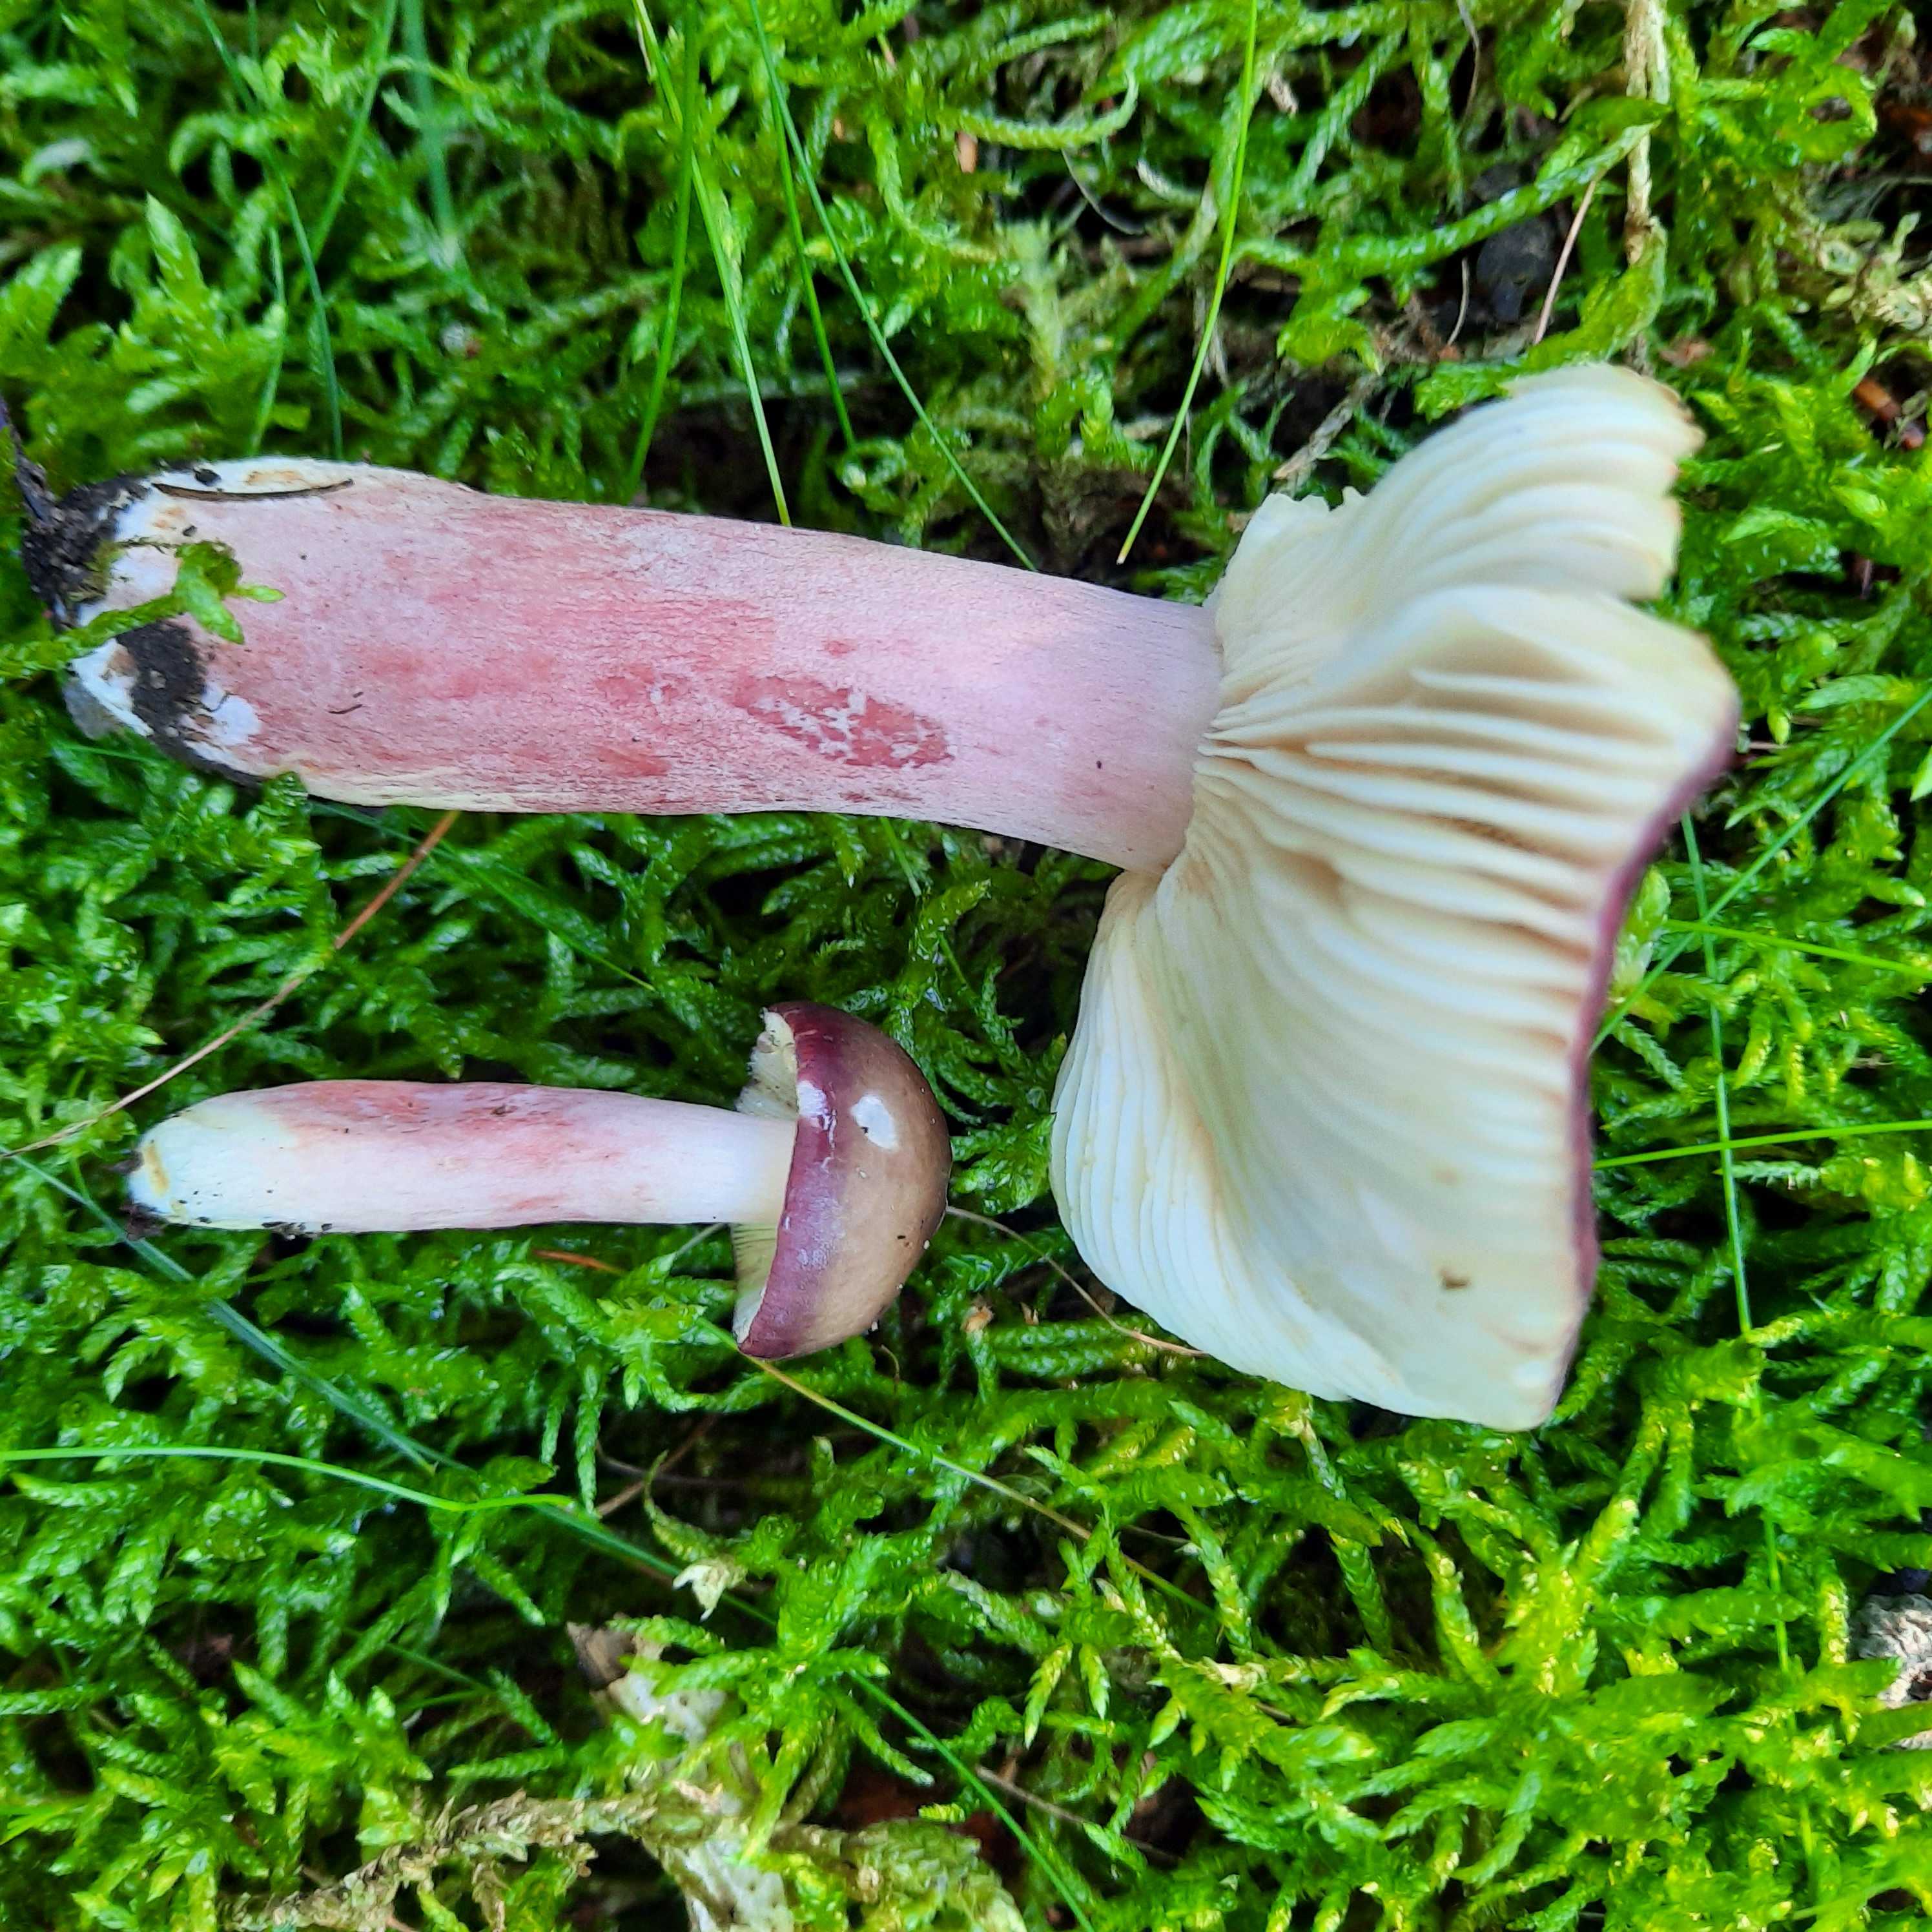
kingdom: Fungi
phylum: Basidiomycota
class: Agaricomycetes
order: Russulales
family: Russulaceae
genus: Russula
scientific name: Russula queletii
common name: Quélets skørhat
